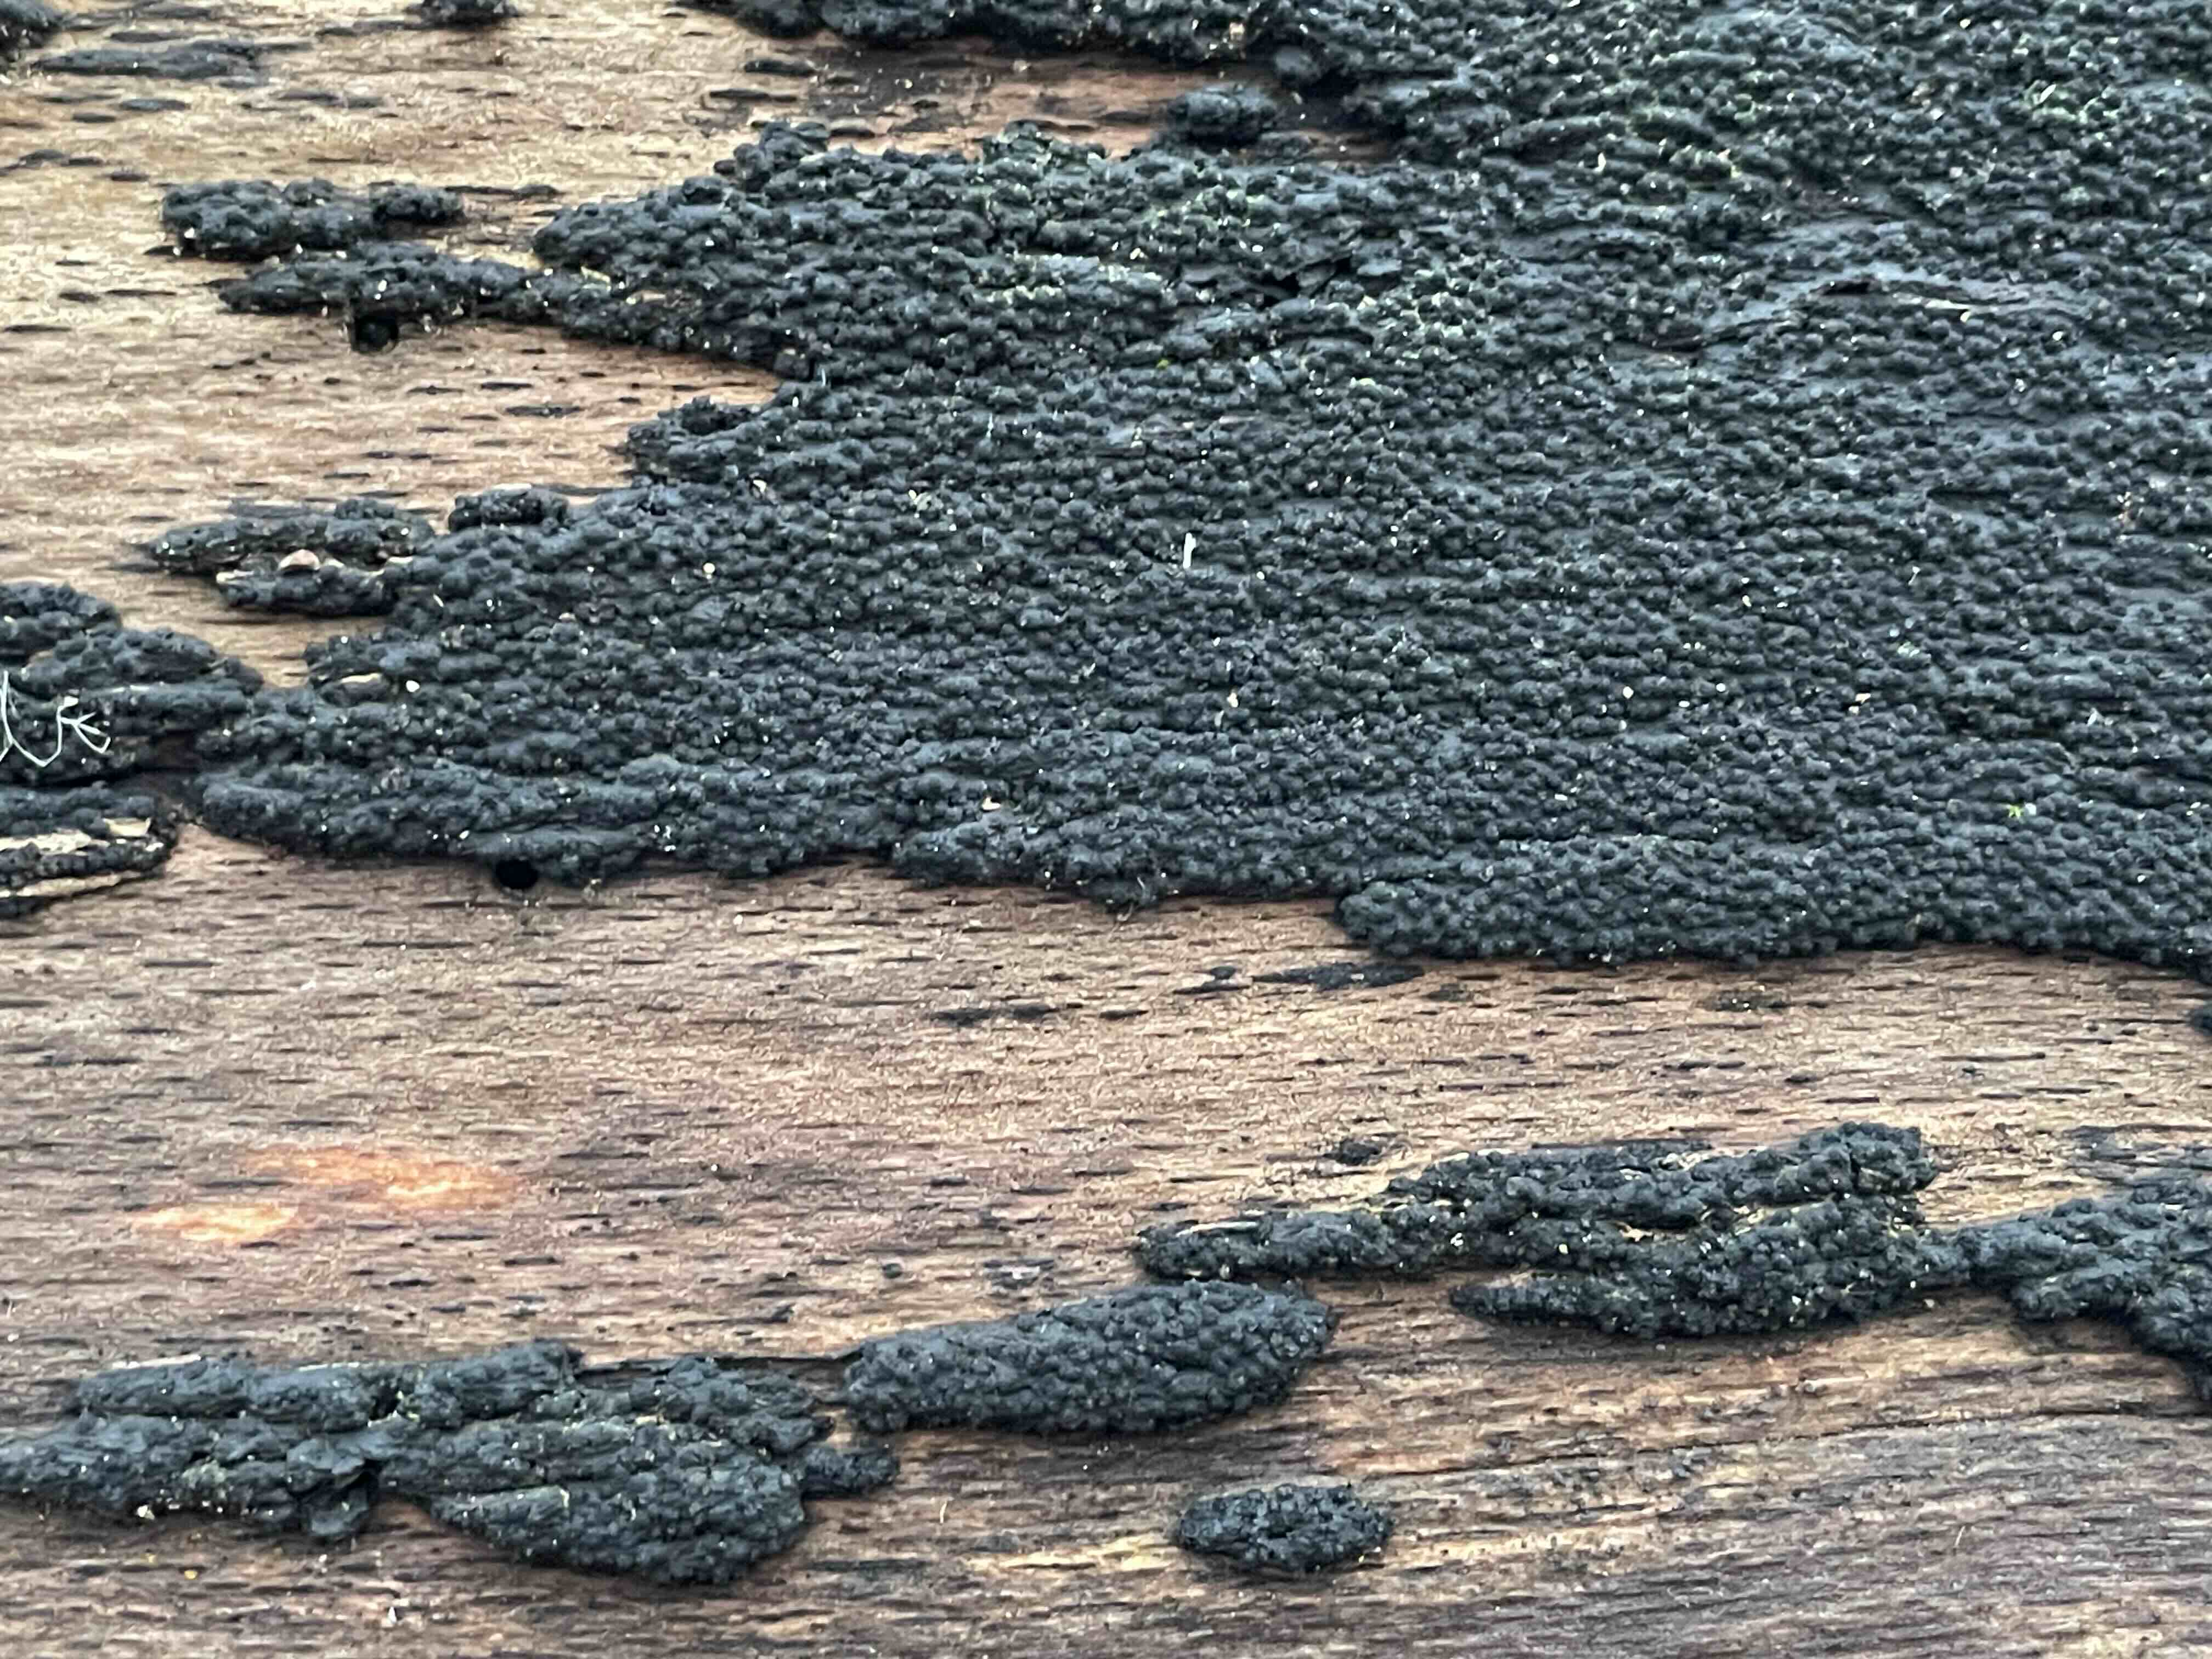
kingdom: Fungi
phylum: Ascomycota
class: Sordariomycetes
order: Xylariales
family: Diatrypaceae
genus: Eutypa
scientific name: Eutypa spinosa
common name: grov kulskorpe
